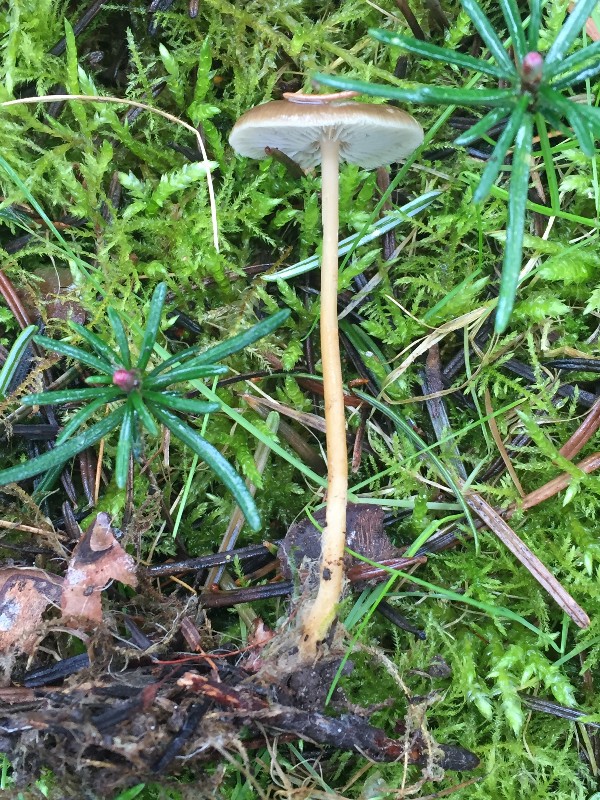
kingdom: Fungi
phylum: Basidiomycota
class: Agaricomycetes
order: Agaricales
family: Physalacriaceae
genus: Strobilurus
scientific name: Strobilurus
